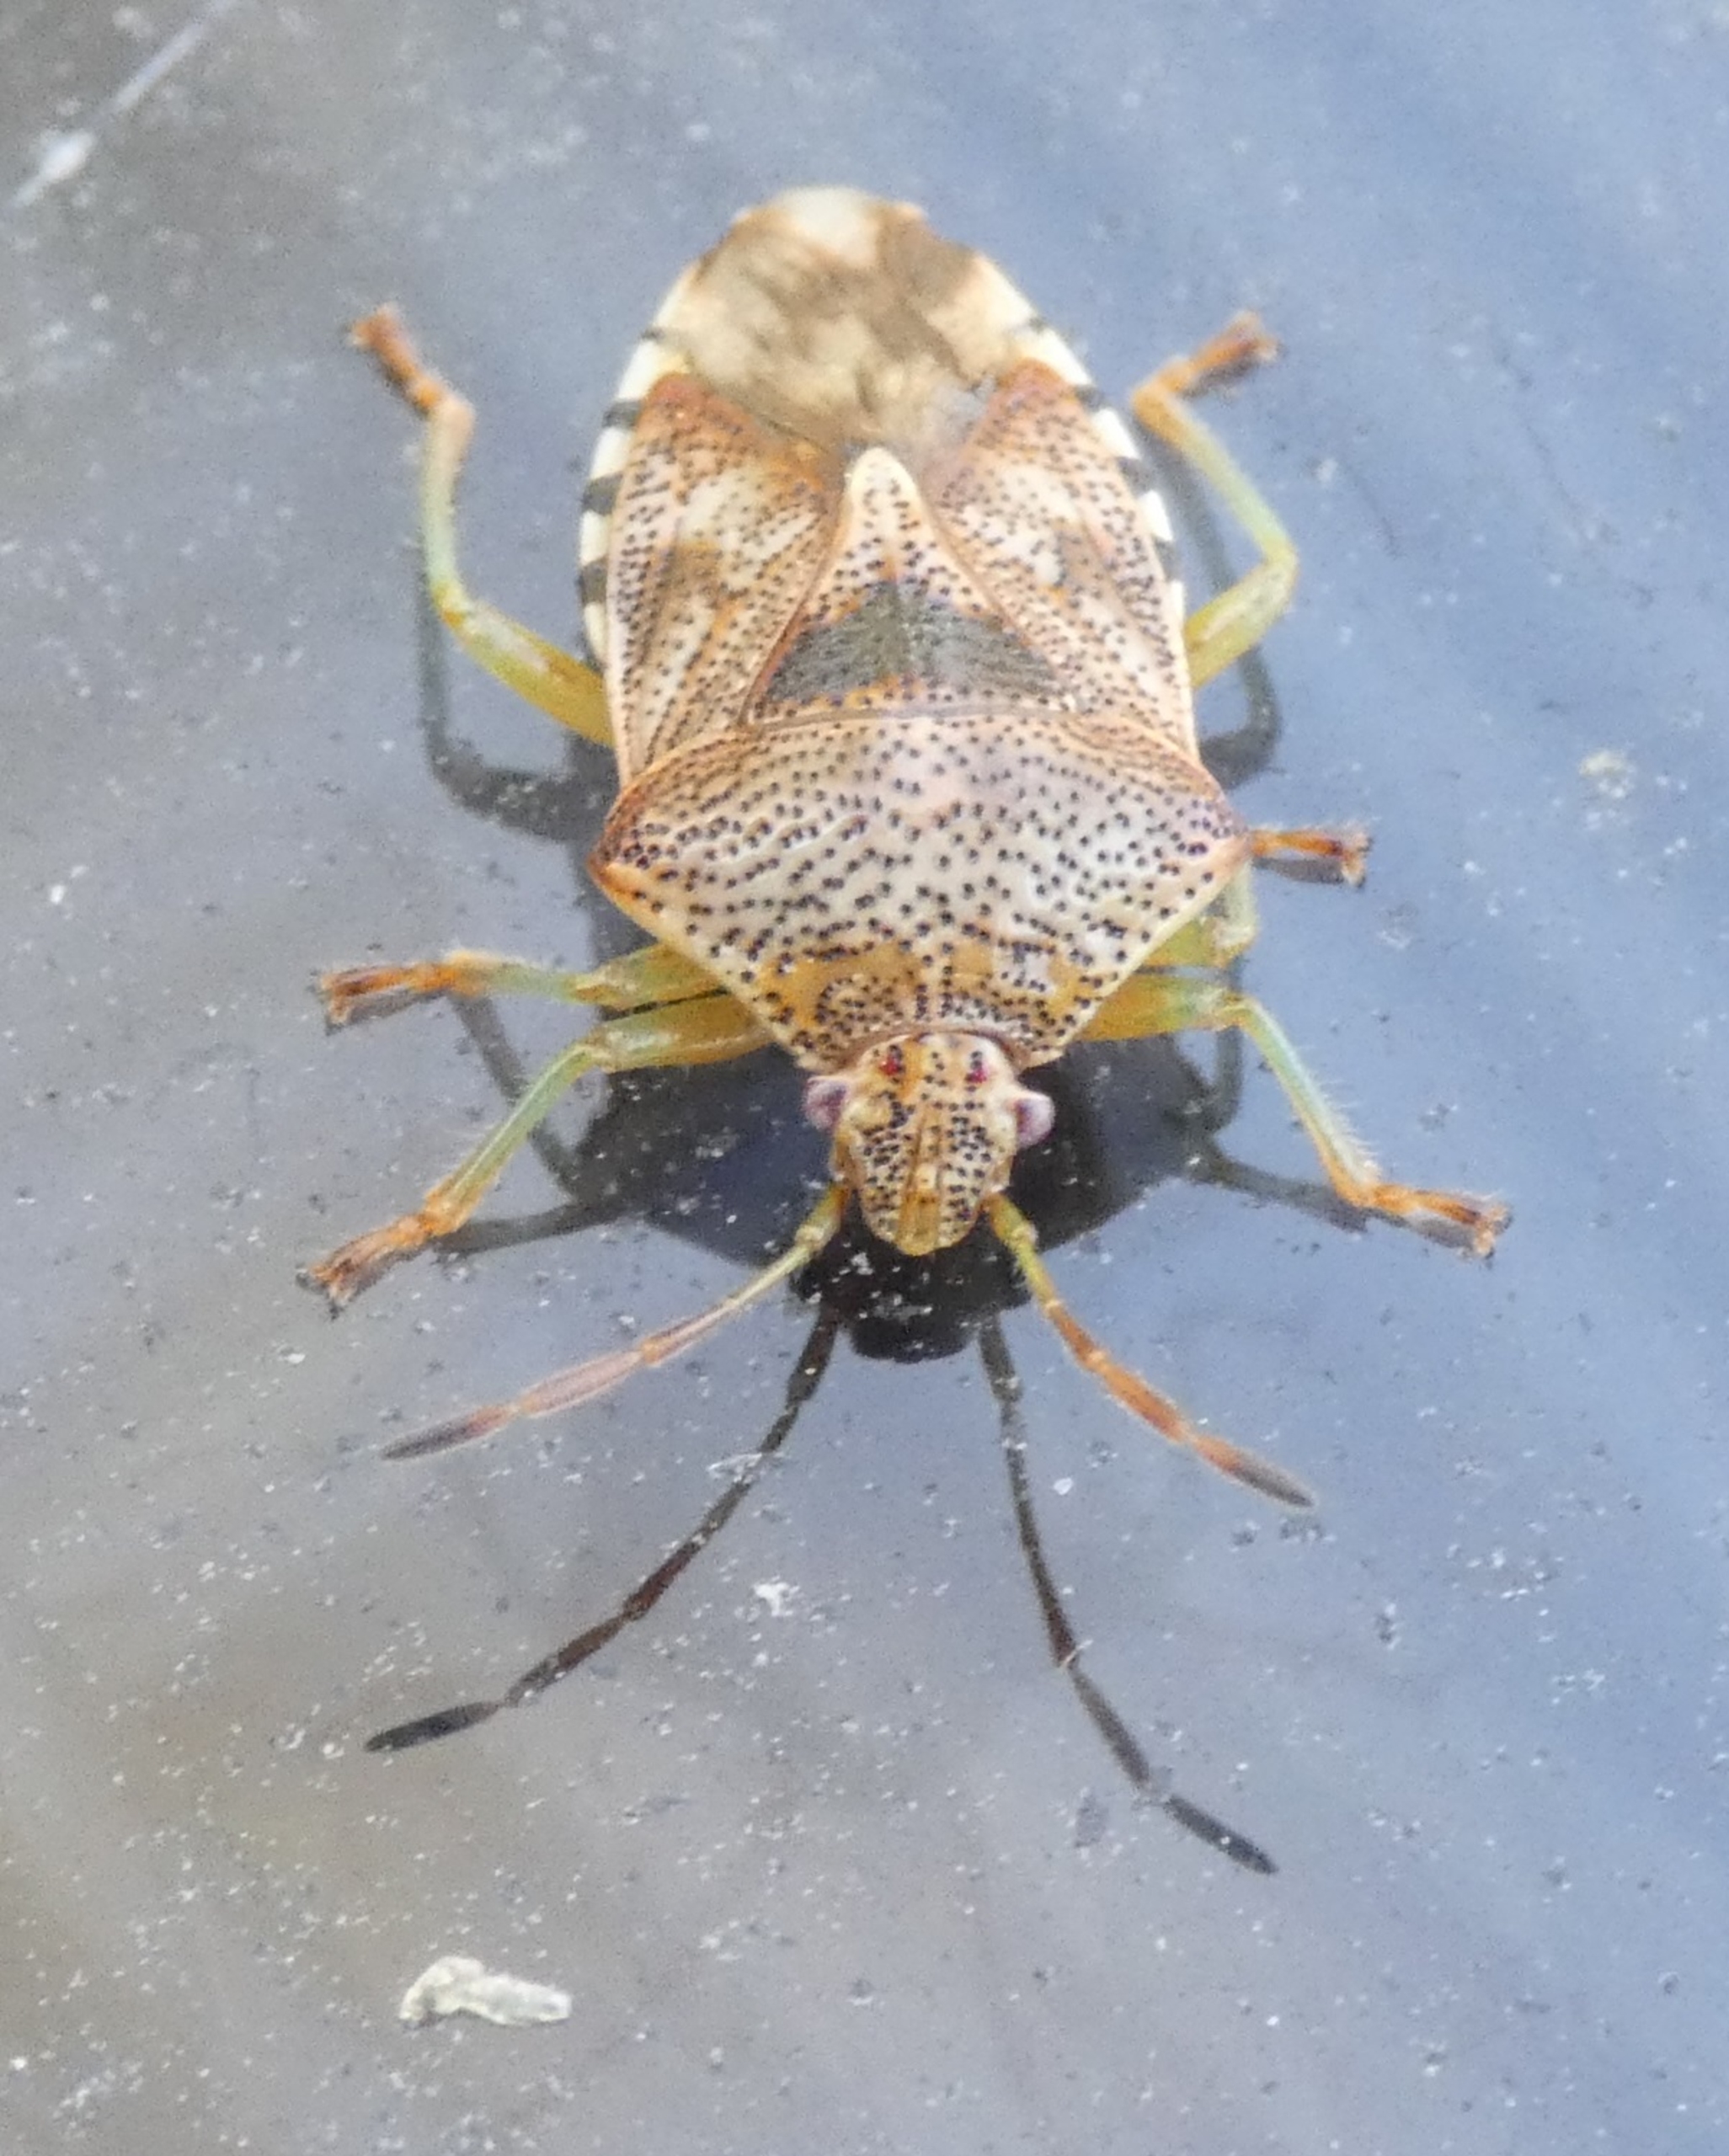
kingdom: Animalia
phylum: Arthropoda
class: Insecta
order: Hemiptera
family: Acanthosomatidae
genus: Elasmucha
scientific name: Elasmucha grisea
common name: Almindelig birketæge
